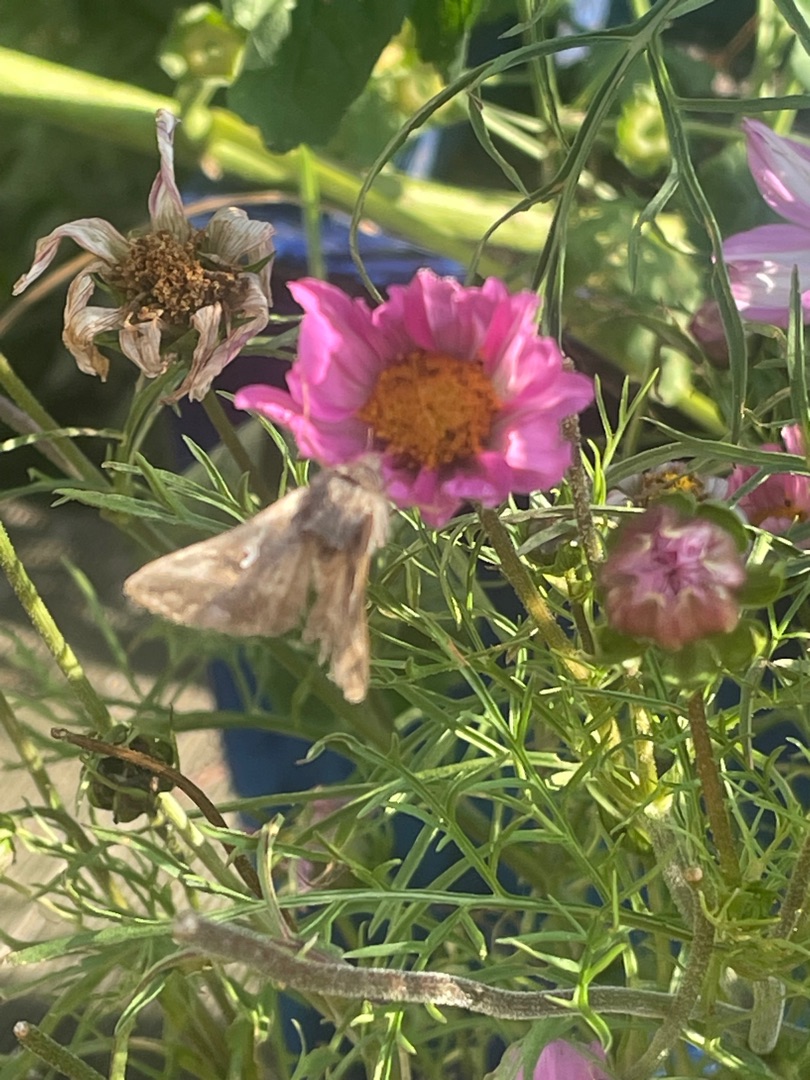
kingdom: Animalia
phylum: Arthropoda
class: Insecta
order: Lepidoptera
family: Noctuidae
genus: Autographa
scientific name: Autographa gamma
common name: Gammaugle
